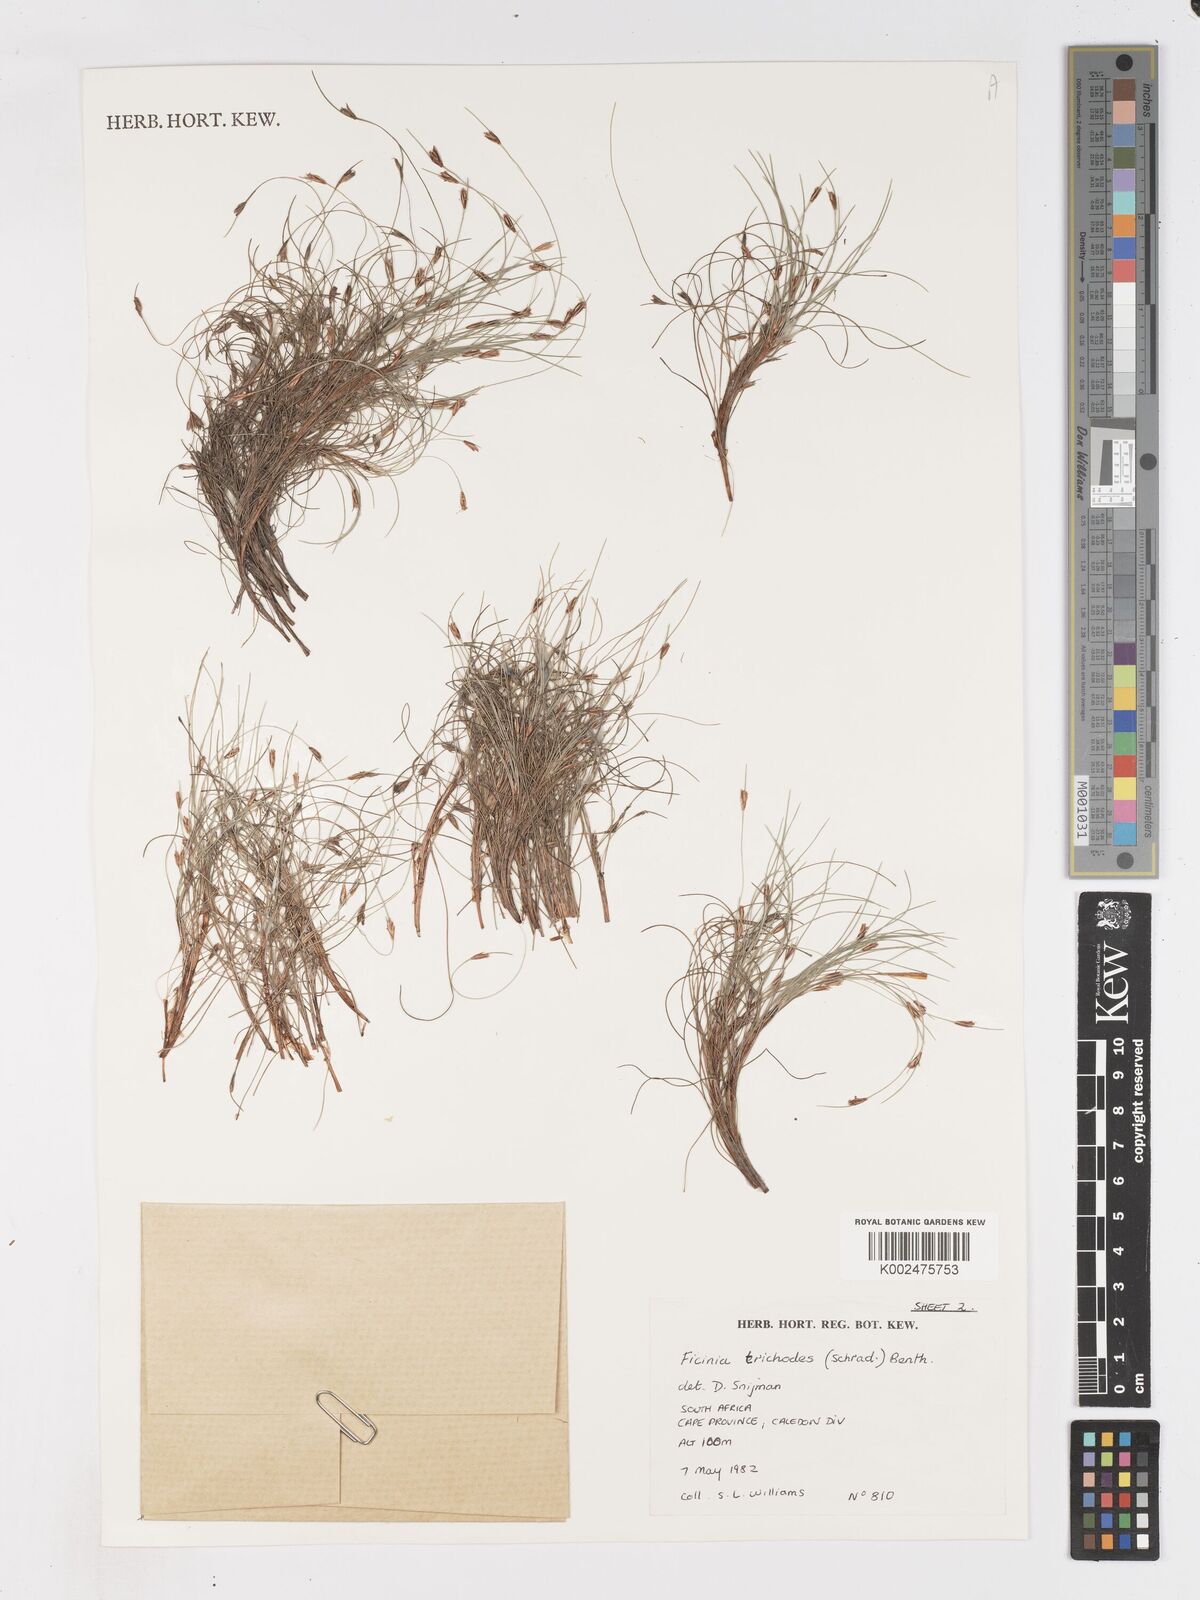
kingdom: Plantae
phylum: Tracheophyta
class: Liliopsida
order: Poales
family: Cyperaceae
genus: Ficinia
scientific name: Ficinia ramosissima
